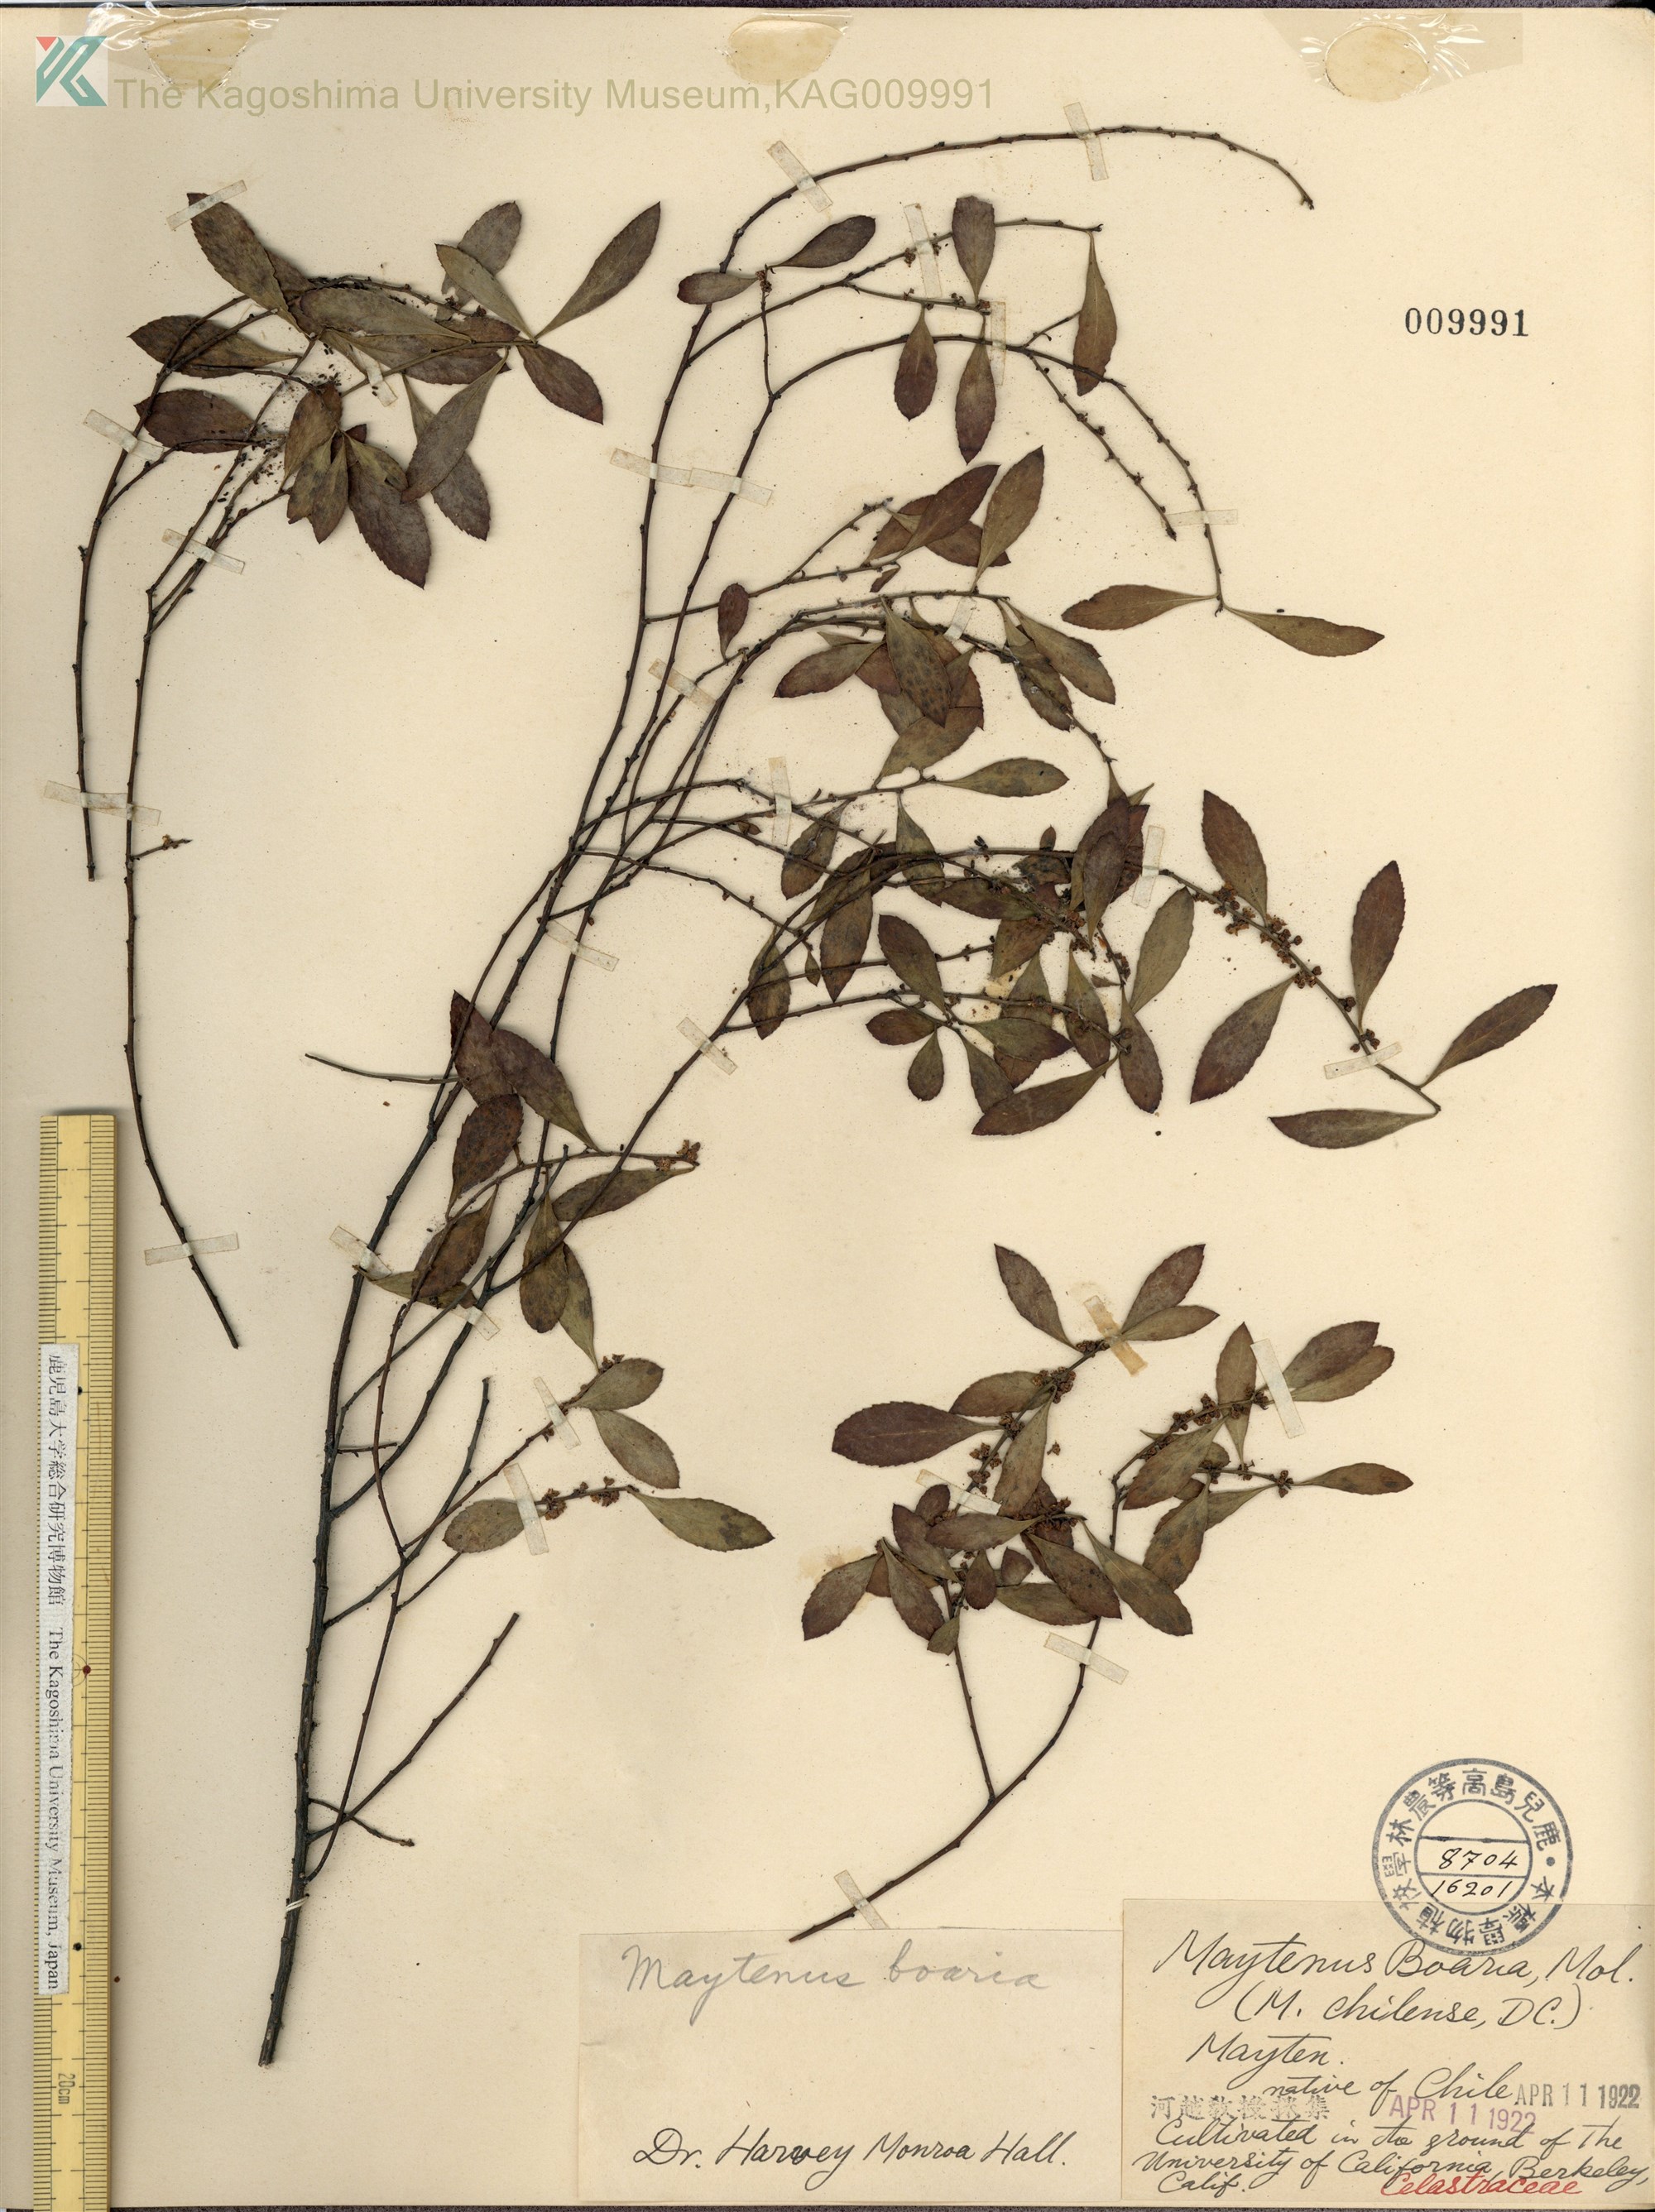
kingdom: Plantae
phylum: Tracheophyta
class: Magnoliopsida
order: Celastrales
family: Celastraceae
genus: Gymnosporia
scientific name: Gymnosporia diversifolia
